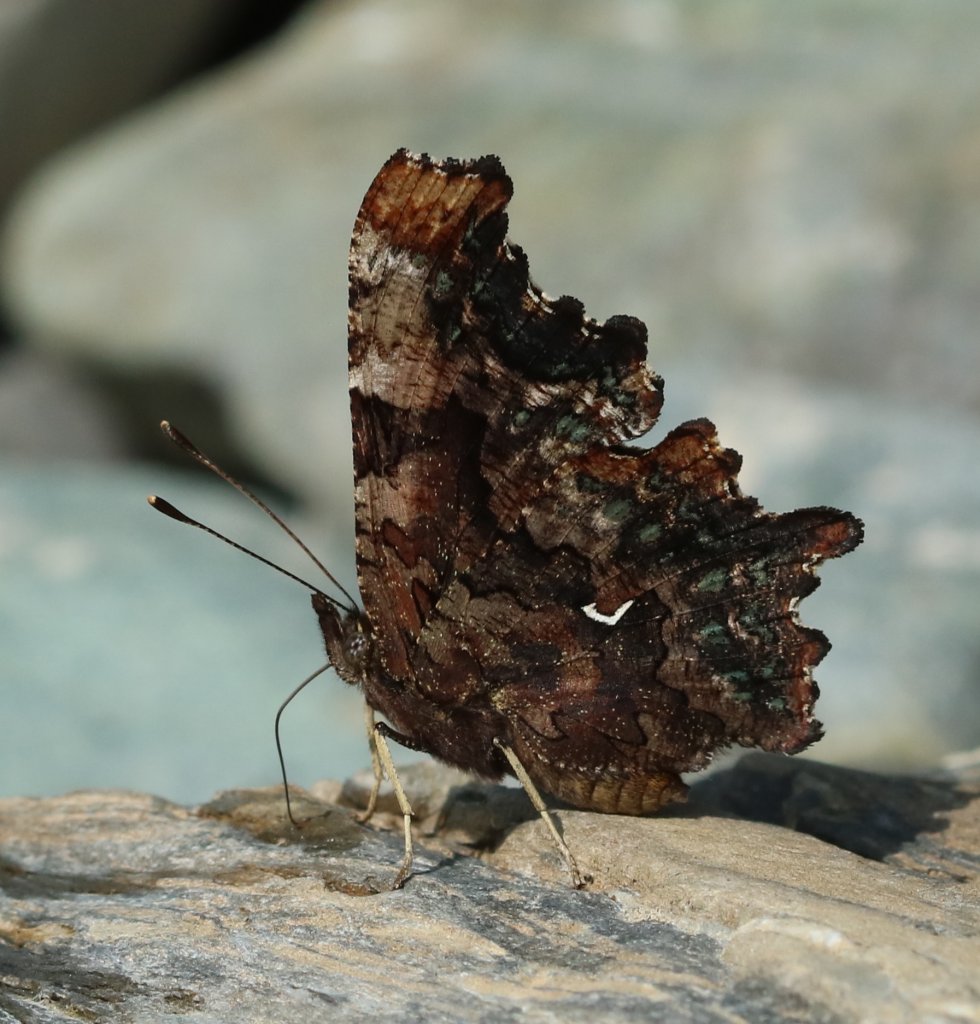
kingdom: Animalia
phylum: Arthropoda
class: Insecta
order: Lepidoptera
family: Nymphalidae
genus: Polygonia
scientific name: Polygonia faunus
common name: Green Comma
